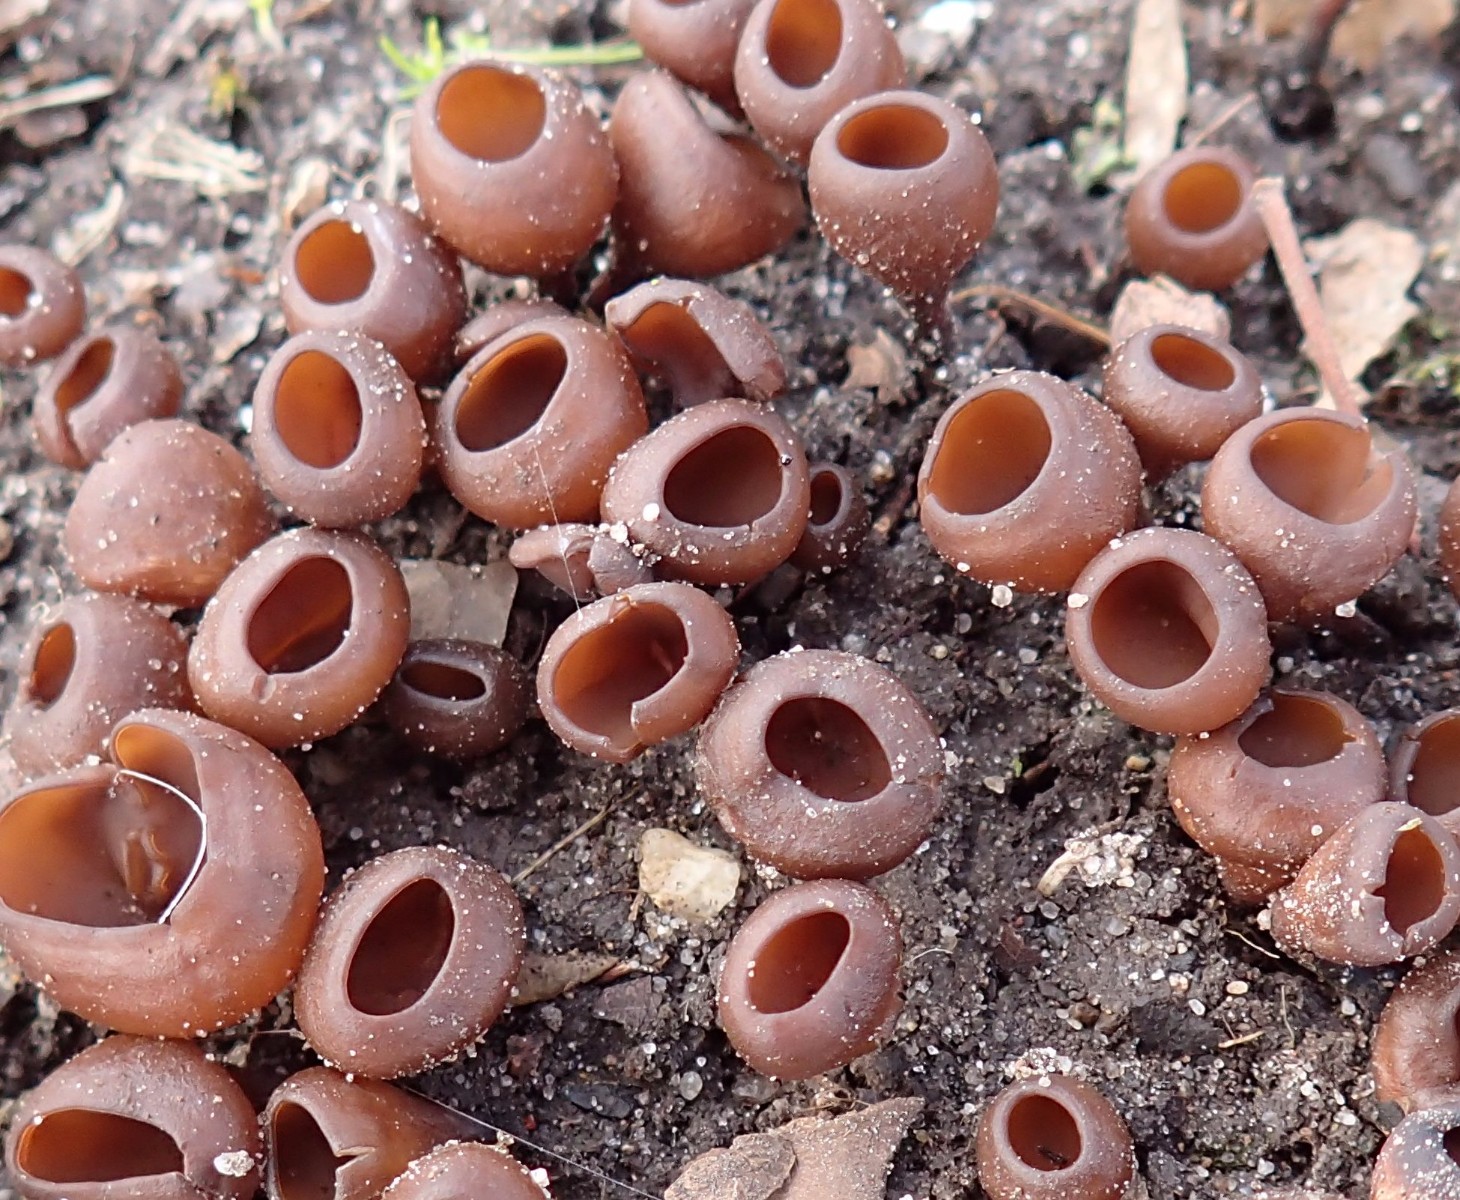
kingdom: Fungi
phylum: Ascomycota
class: Leotiomycetes
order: Helotiales
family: Sclerotiniaceae
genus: Dumontinia
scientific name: Dumontinia tuberosa
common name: anemone-knoldskive
